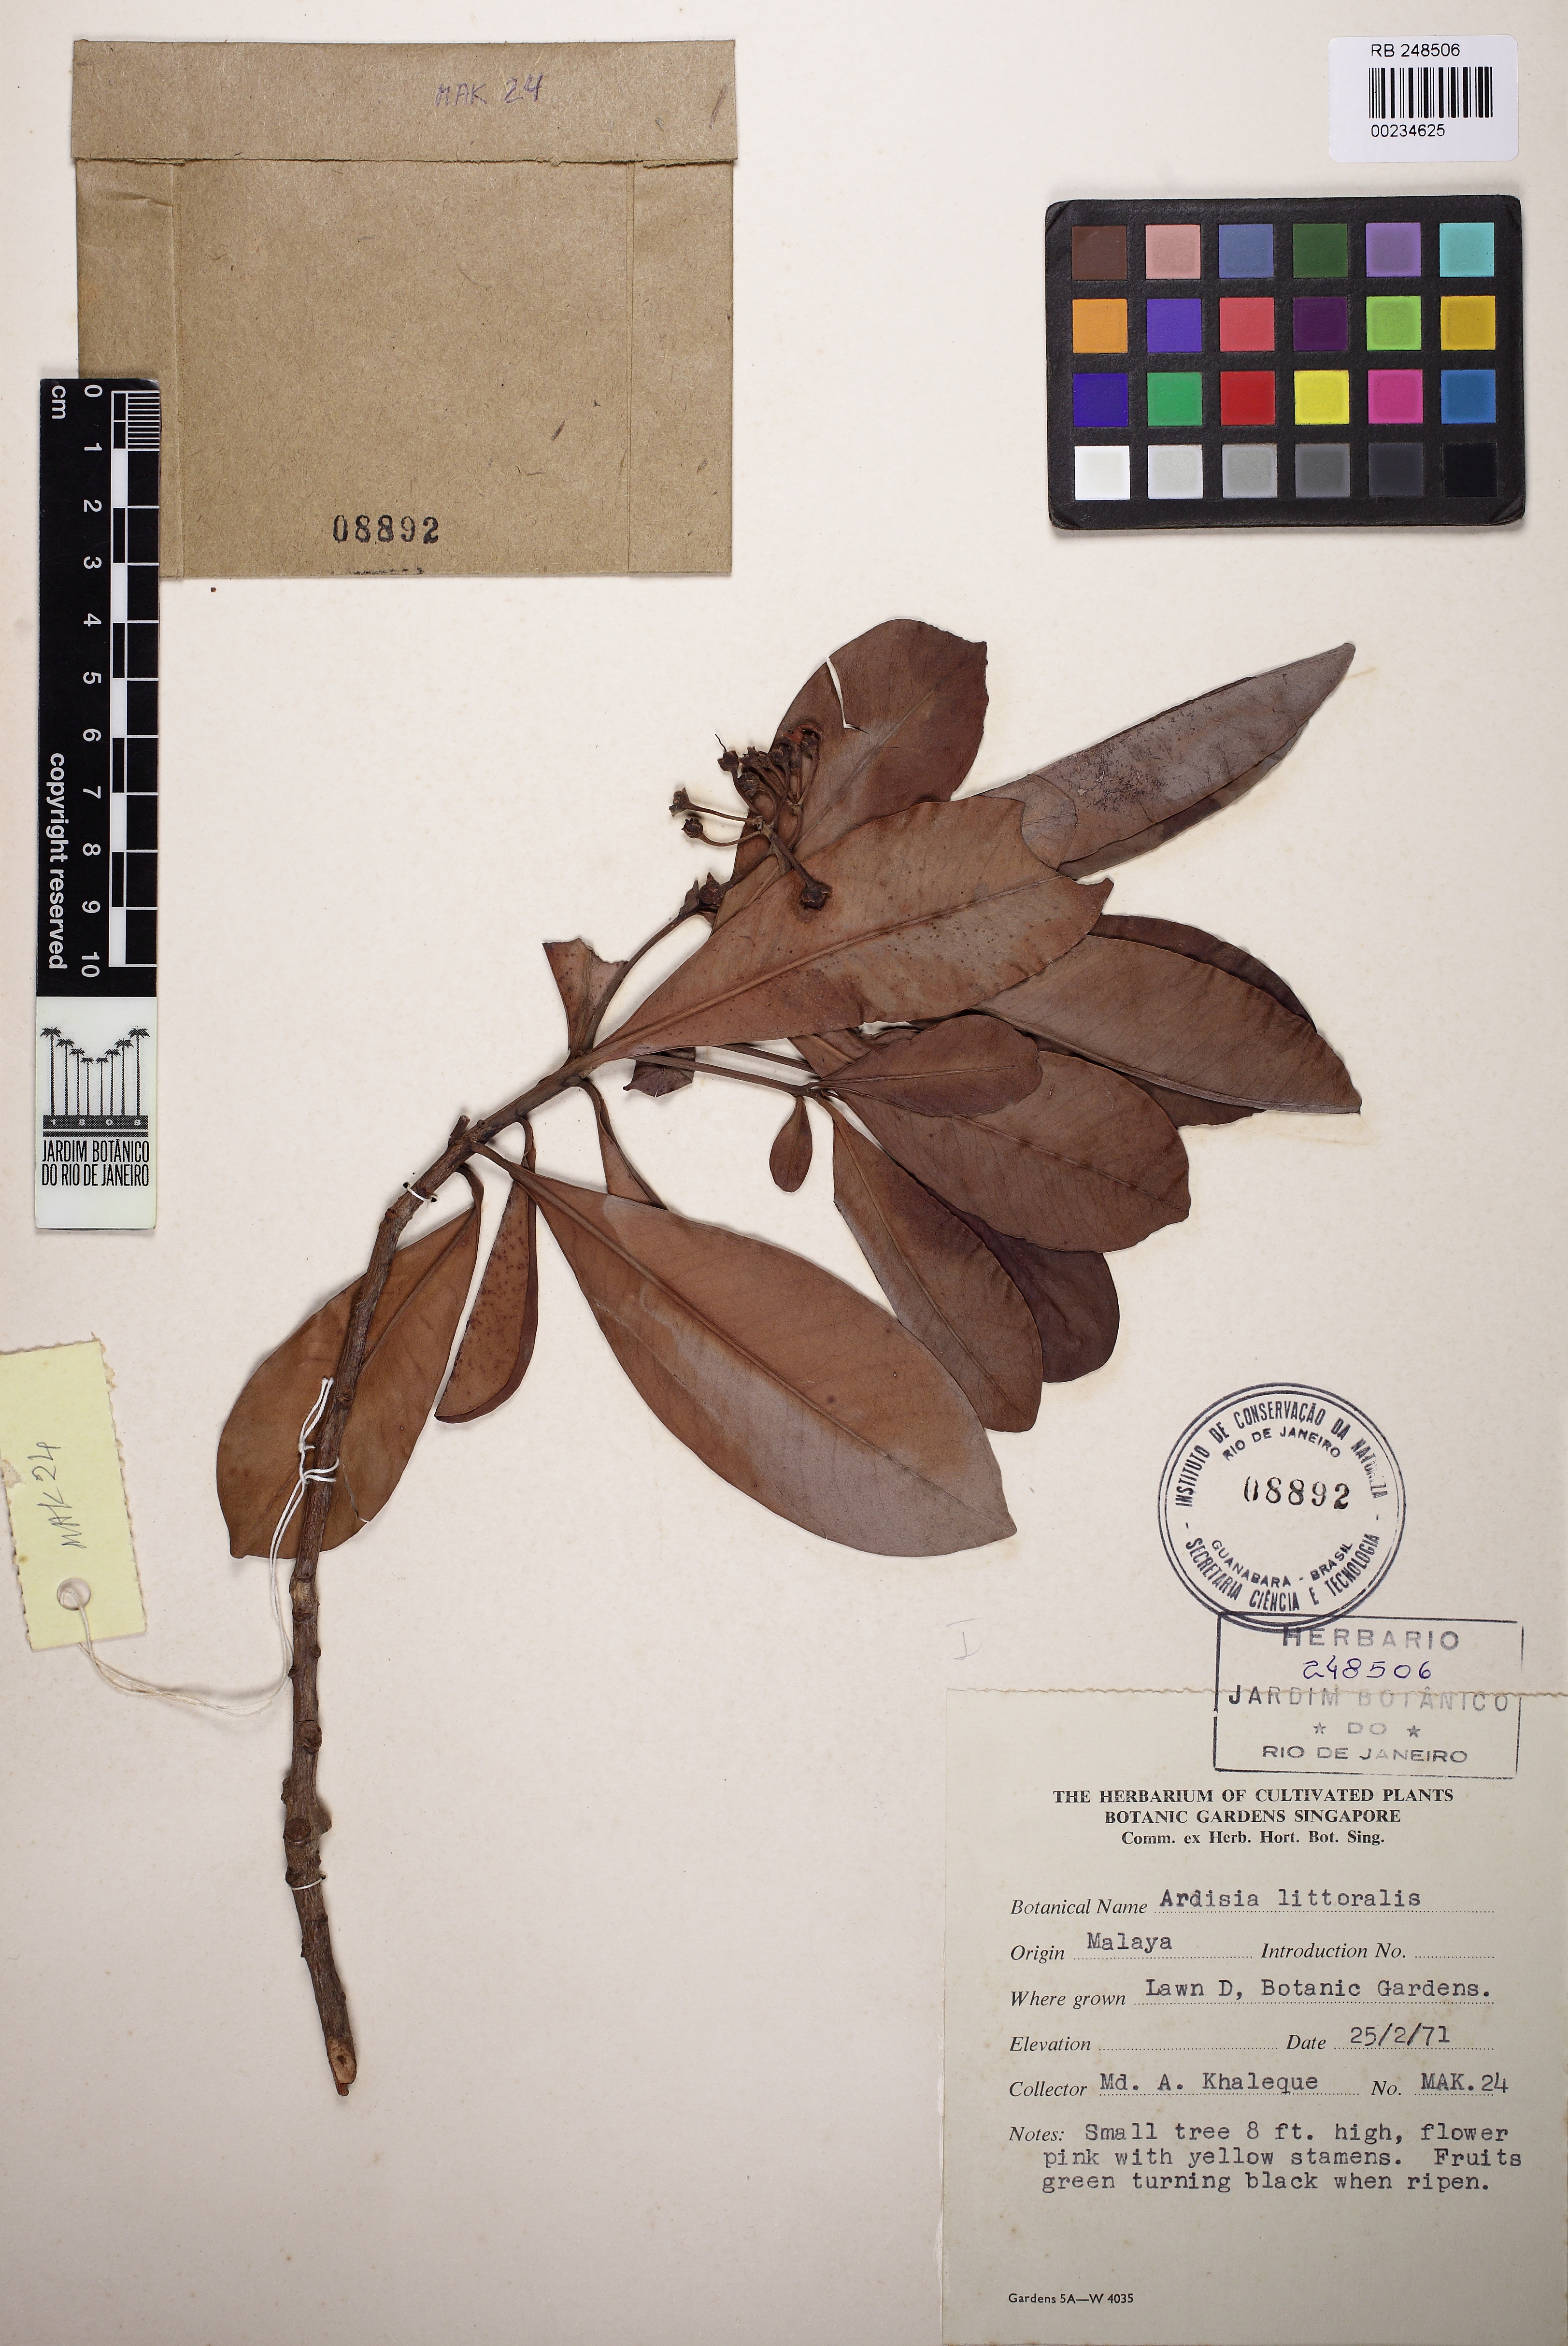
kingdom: Plantae
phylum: Tracheophyta
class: Magnoliopsida
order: Ericales
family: Primulaceae
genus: Ardisia
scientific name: Ardisia elliptica
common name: Shoebutton
